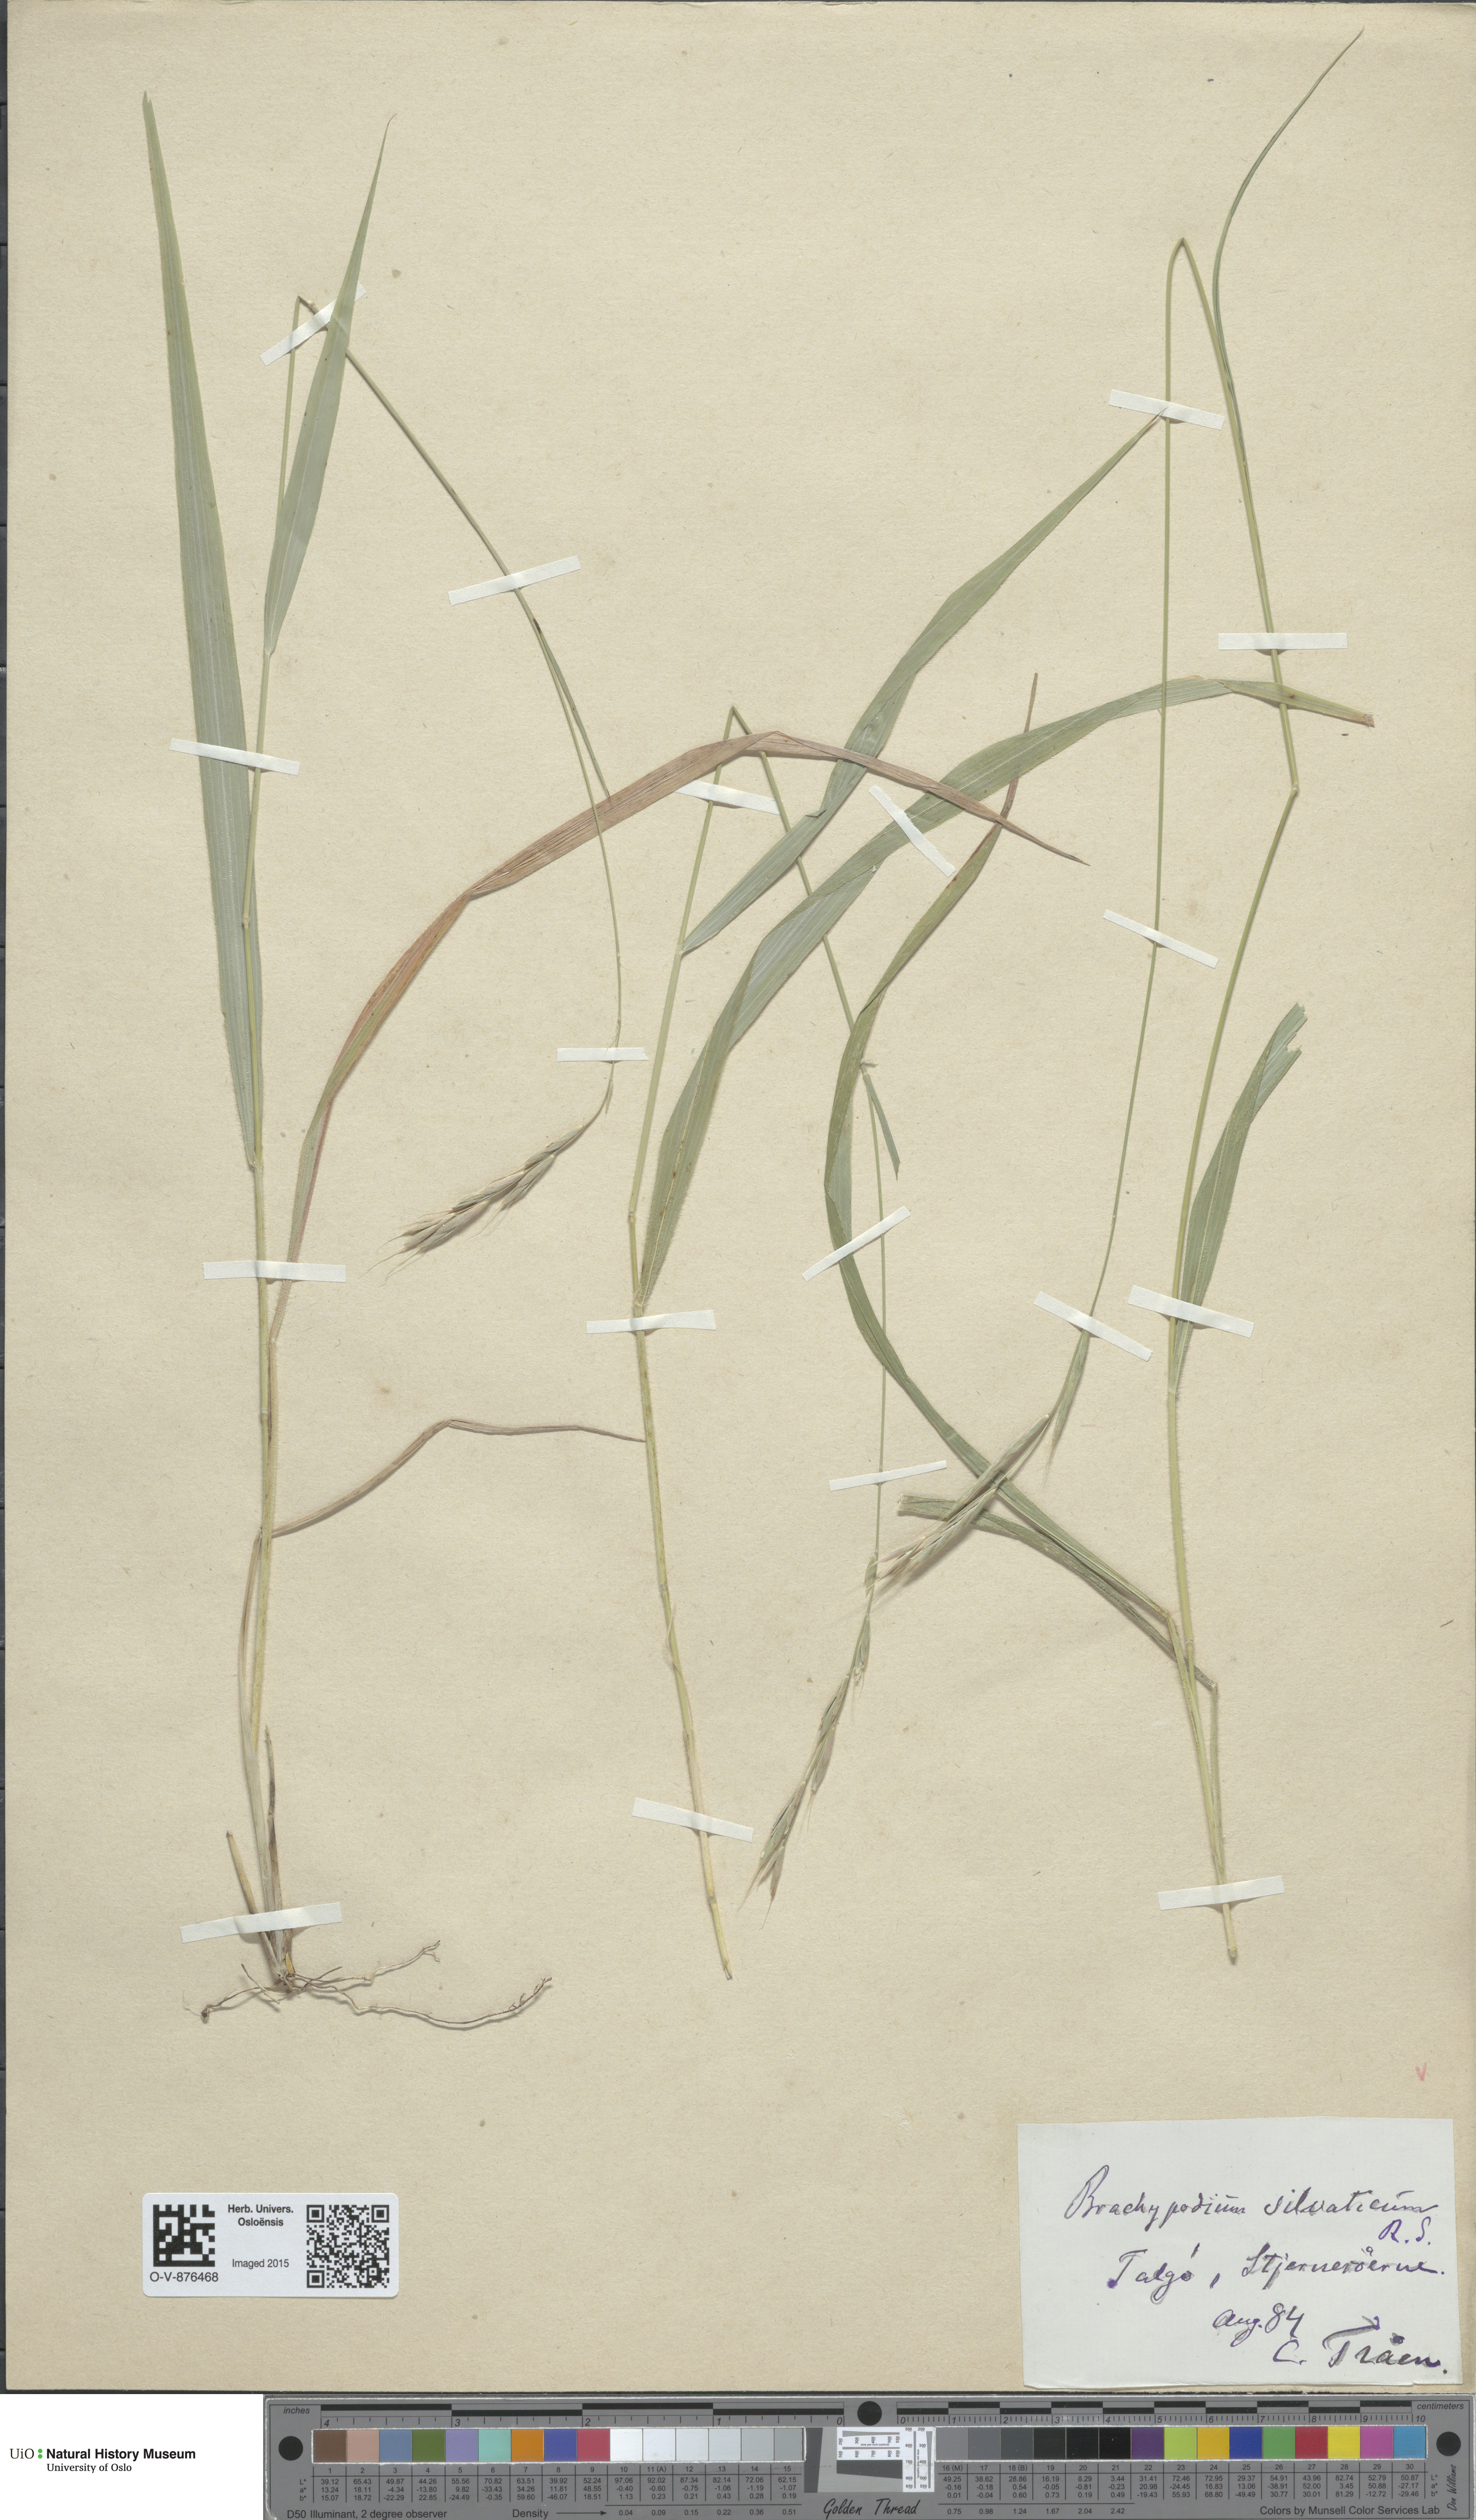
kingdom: Plantae
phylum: Tracheophyta
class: Liliopsida
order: Poales
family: Poaceae
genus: Brachypodium
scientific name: Brachypodium sylvaticum
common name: False-brome
